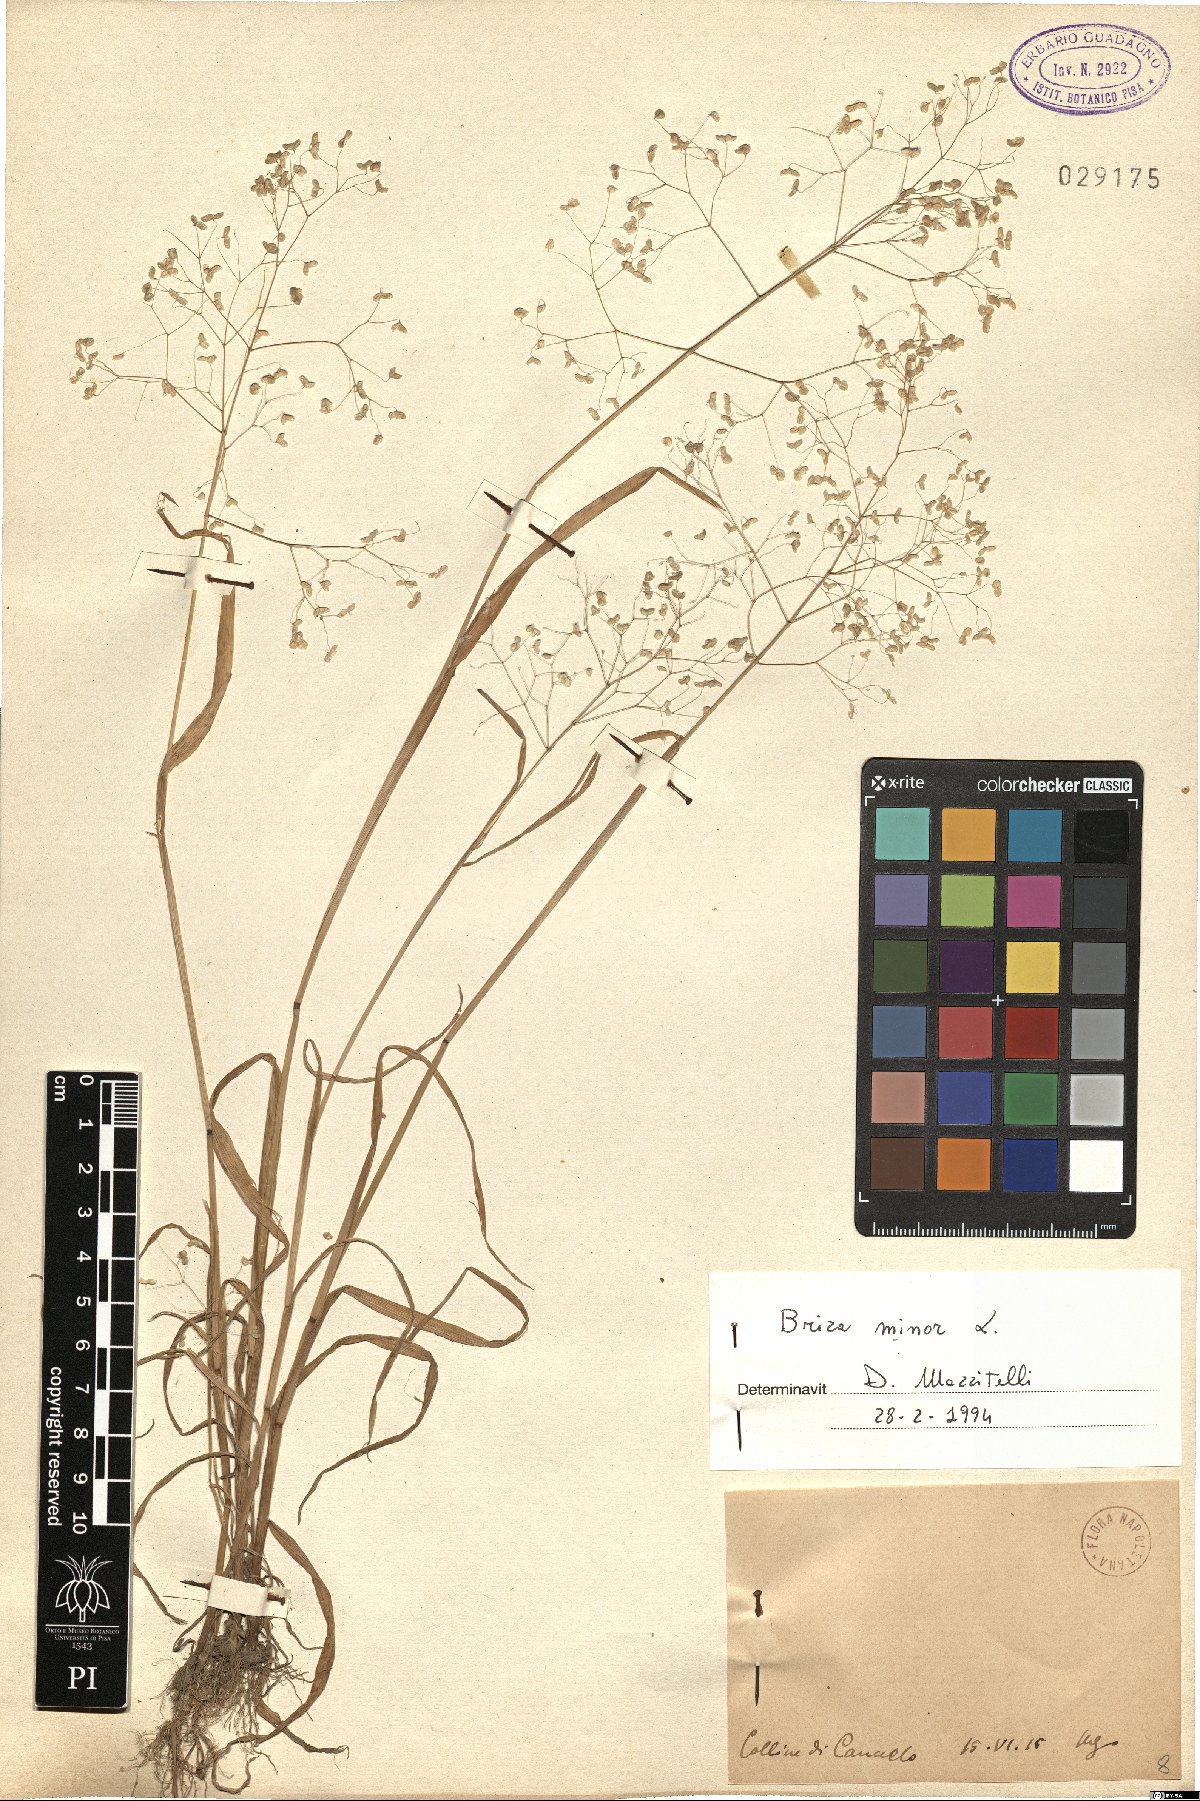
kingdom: Plantae
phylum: Tracheophyta
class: Liliopsida
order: Poales
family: Poaceae
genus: Briza
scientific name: Briza minor
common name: Lesser quaking-grass
